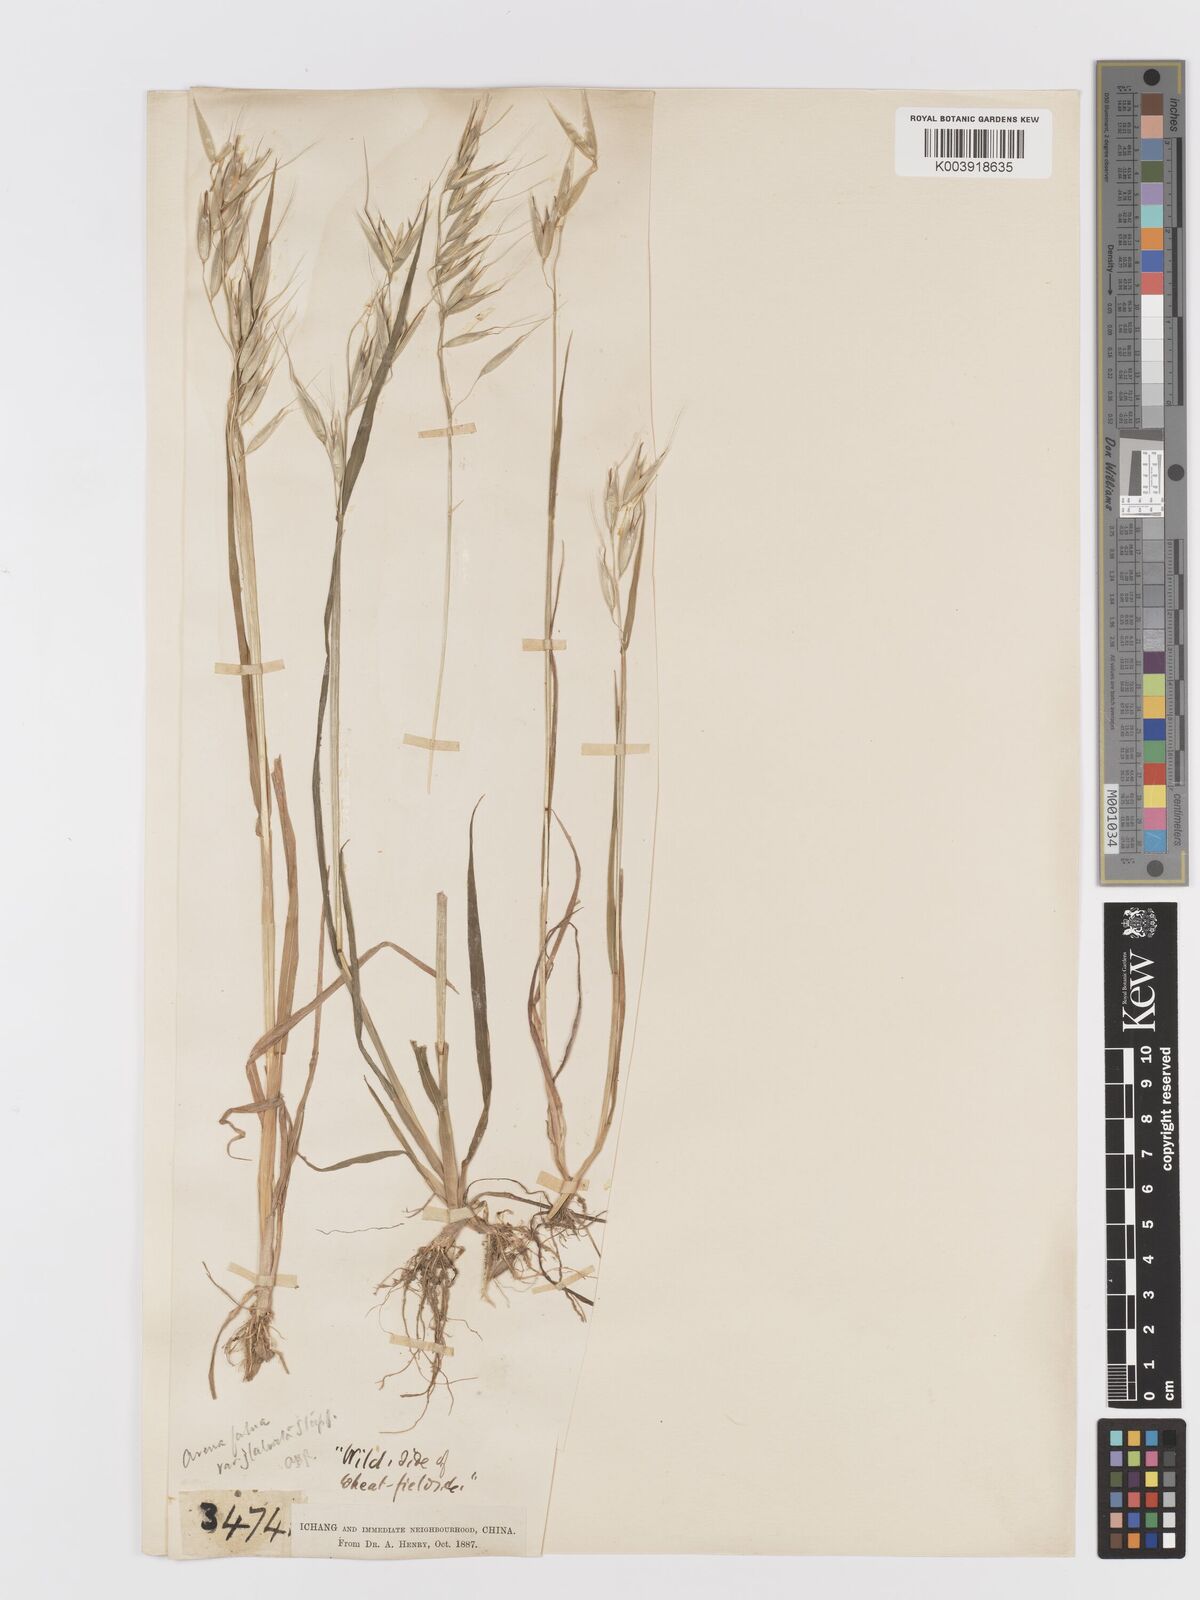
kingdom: Plantae
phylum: Tracheophyta
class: Liliopsida
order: Poales
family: Poaceae
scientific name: Poaceae
